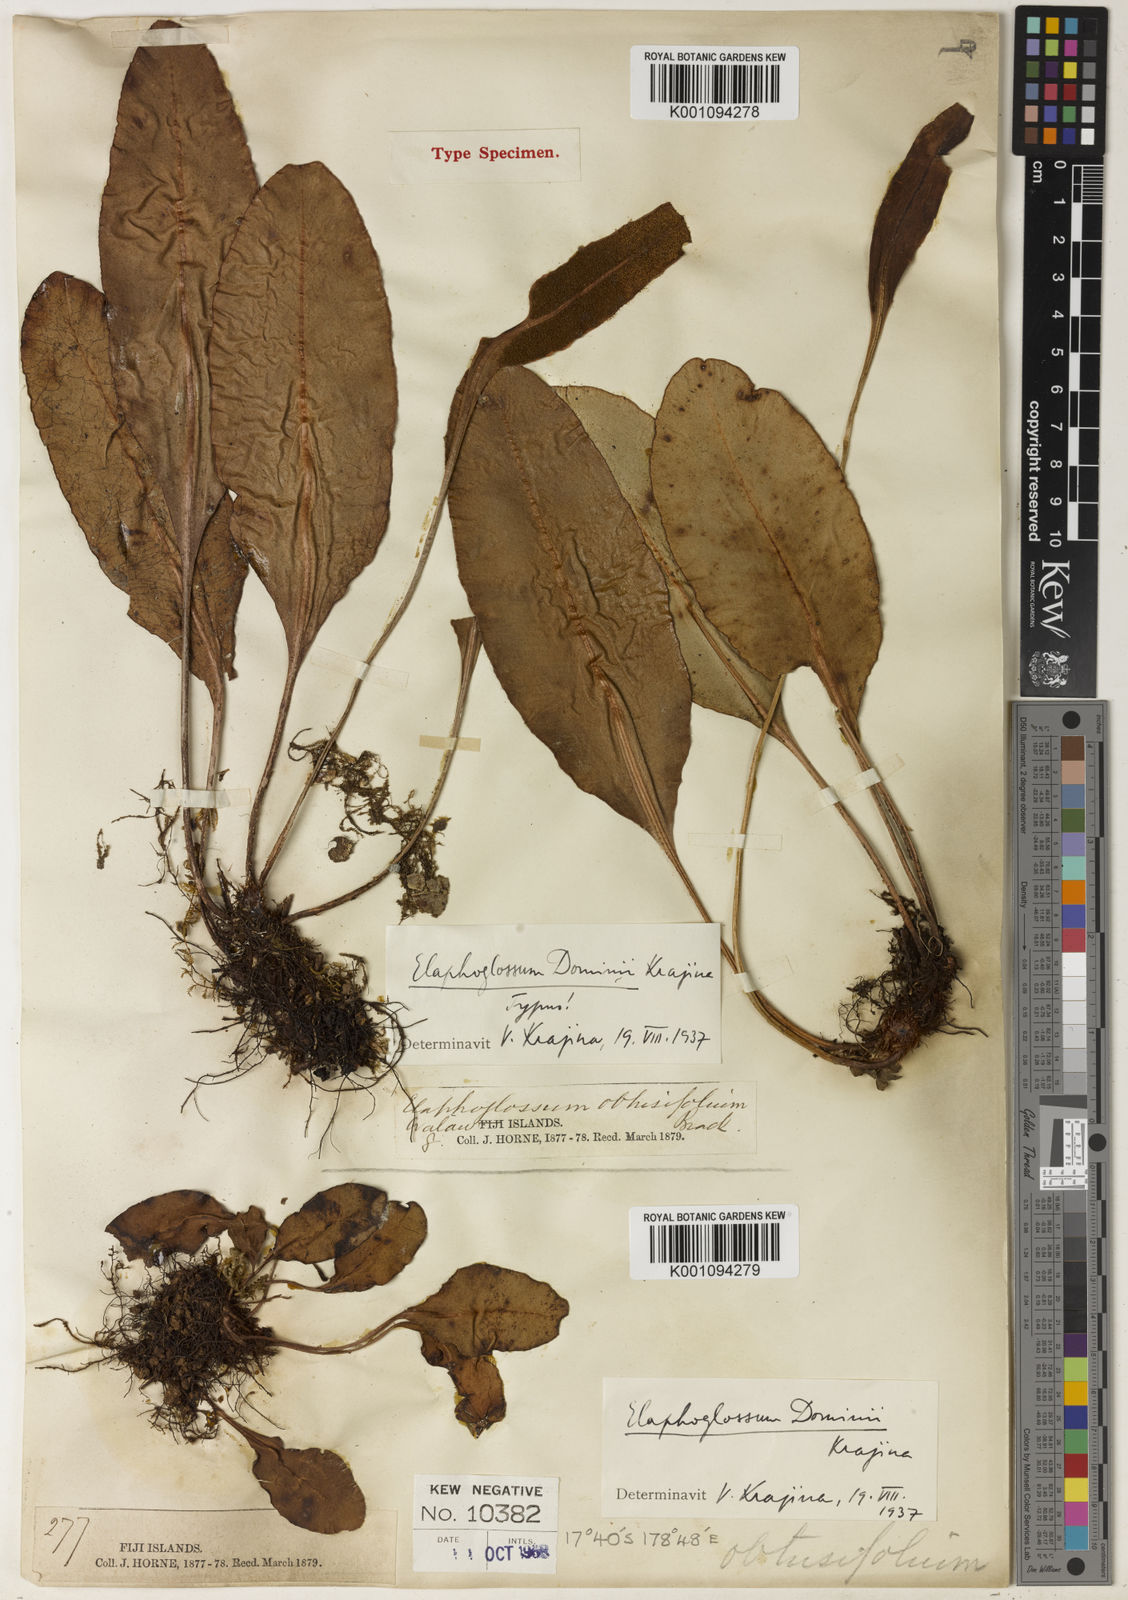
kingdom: Plantae
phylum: Tracheophyta
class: Polypodiopsida
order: Polypodiales
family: Dryopteridaceae
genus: Elaphoglossum
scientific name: Elaphoglossum dominii
